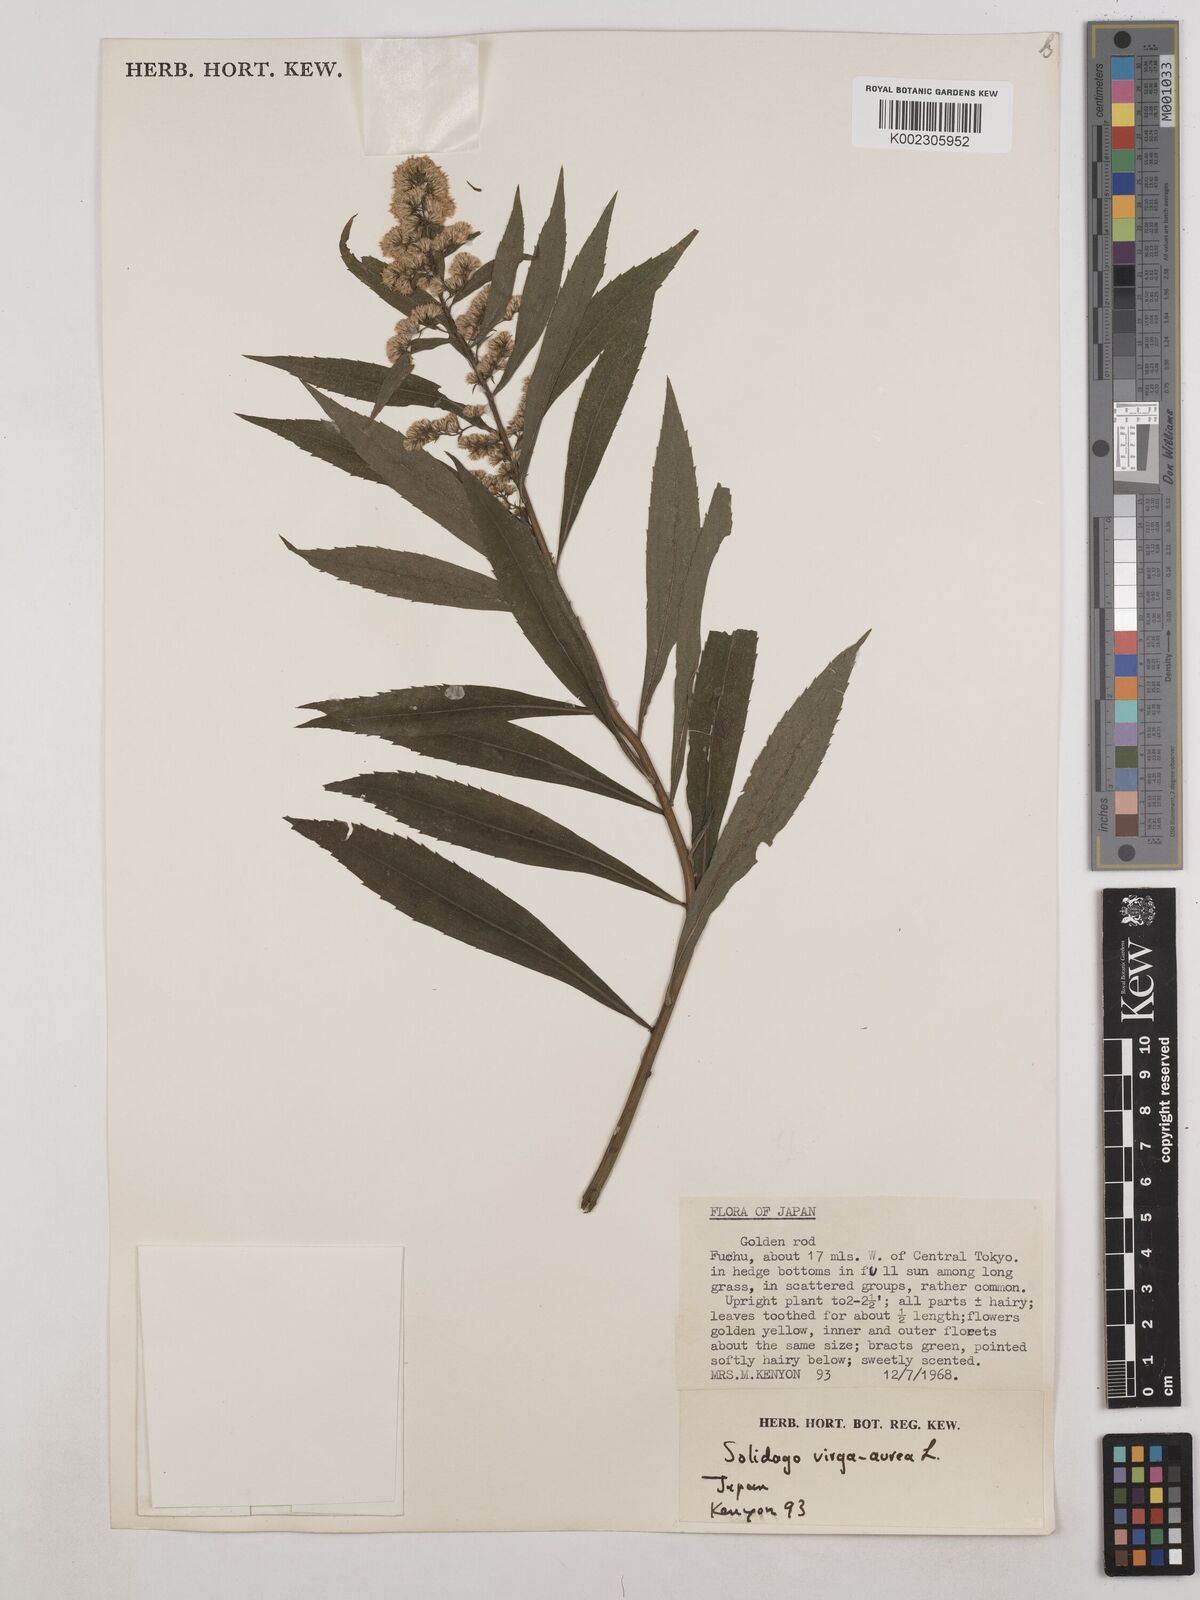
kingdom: Plantae
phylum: Tracheophyta
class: Magnoliopsida
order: Asterales
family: Asteraceae
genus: Solidago
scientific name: Solidago virgaurea
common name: Goldenrod
